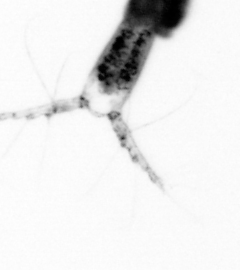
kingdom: Animalia
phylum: Arthropoda
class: Copepoda
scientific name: Copepoda
